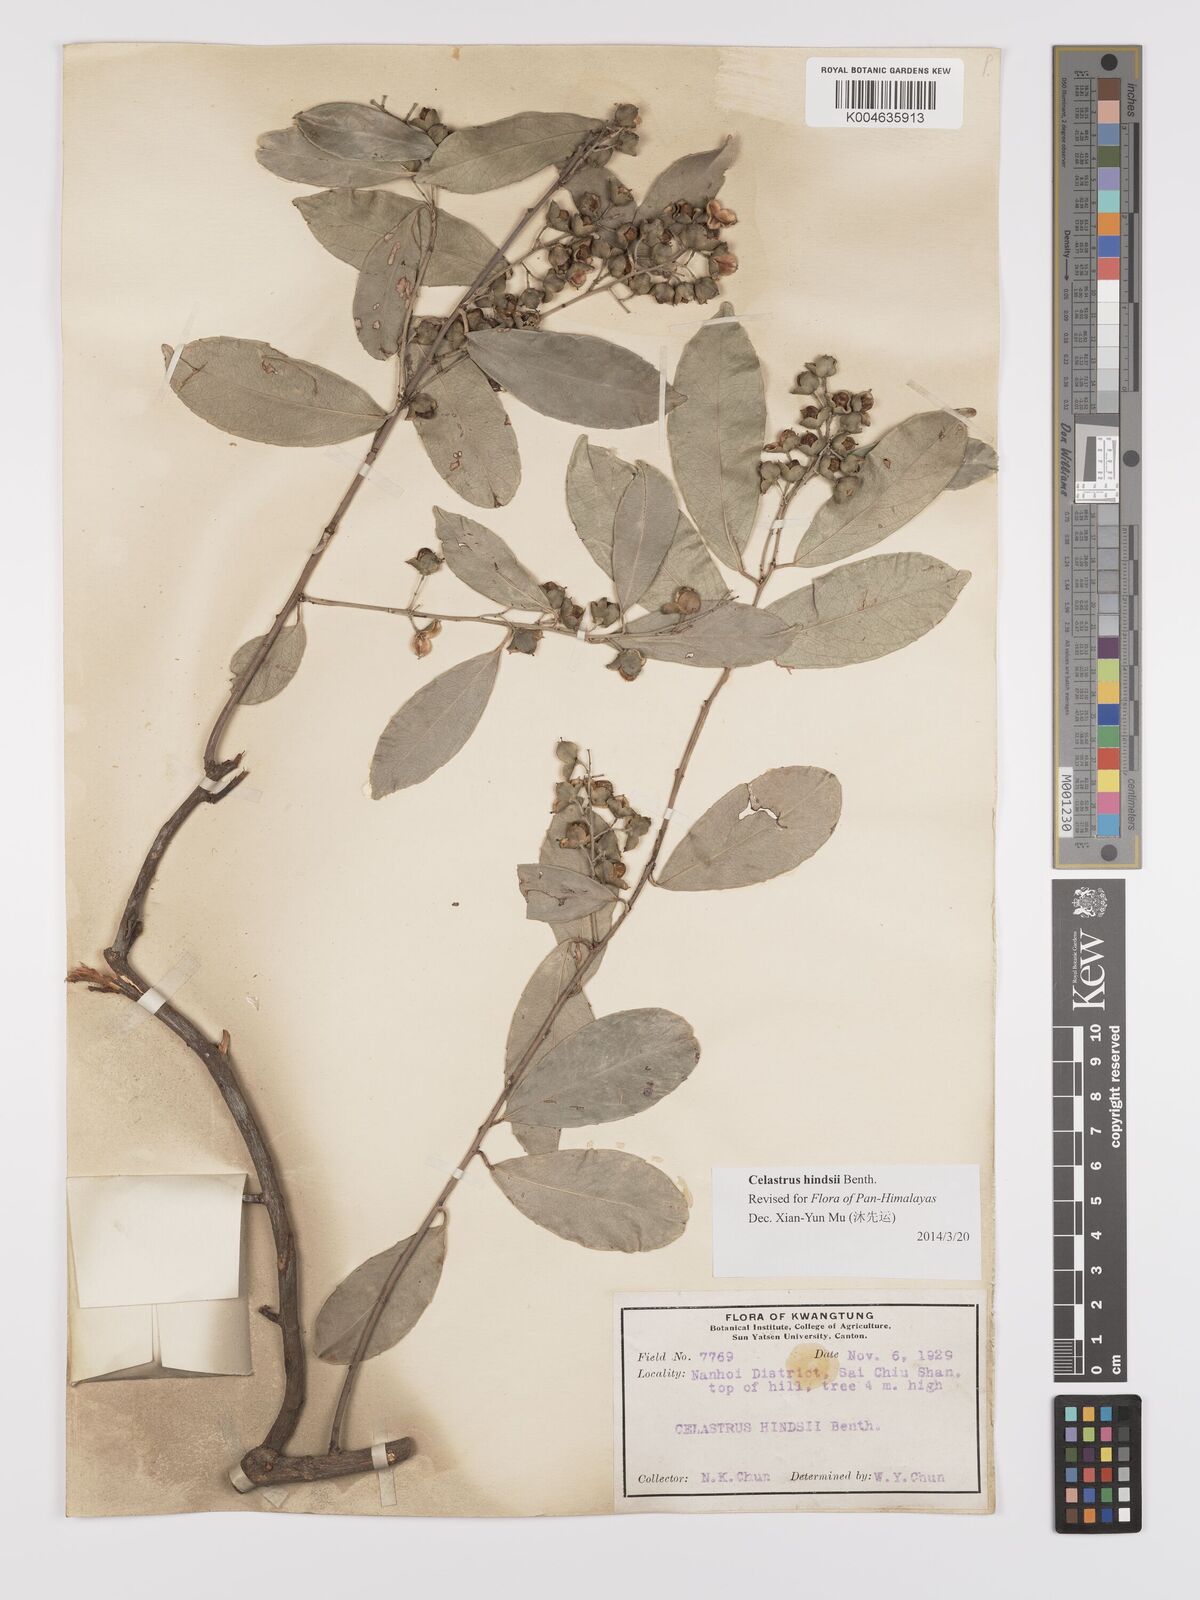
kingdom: Plantae
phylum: Tracheophyta
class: Magnoliopsida
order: Celastrales
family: Celastraceae
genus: Celastrus
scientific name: Celastrus hindsii
